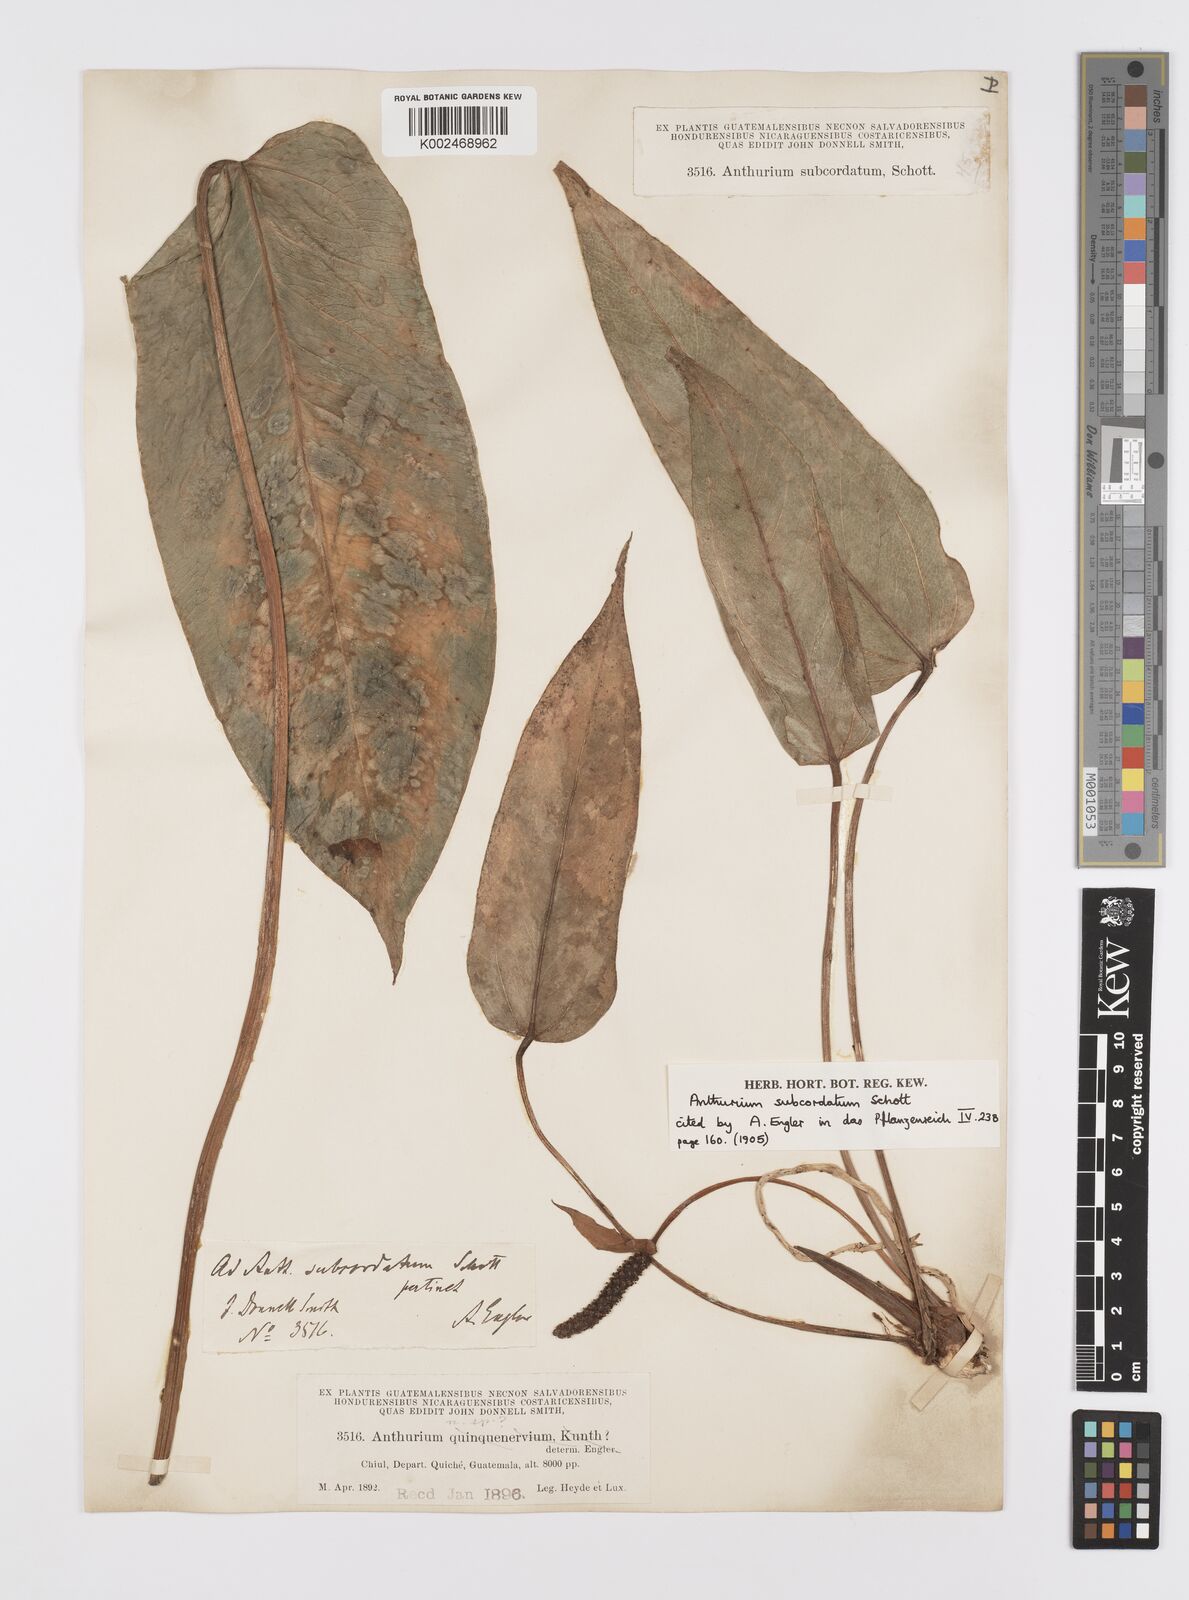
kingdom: Plantae
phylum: Tracheophyta
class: Liliopsida
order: Alismatales
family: Araceae
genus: Anthurium
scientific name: Anthurium subcordatum
